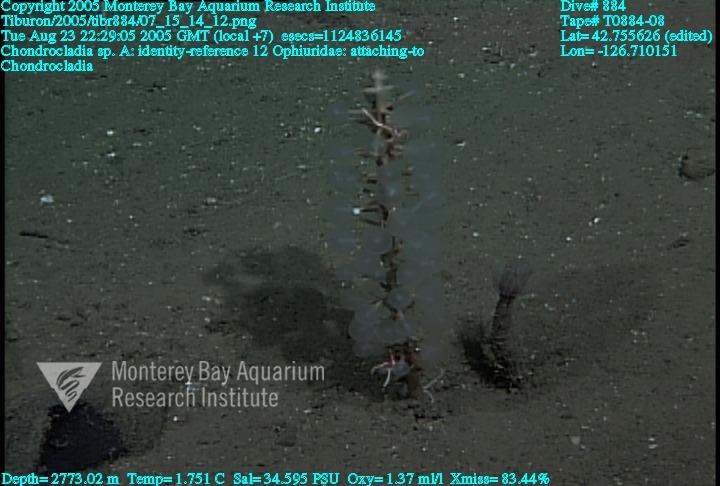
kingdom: Animalia
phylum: Porifera
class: Demospongiae
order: Poecilosclerida
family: Cladorhizidae
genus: Chondrocladia
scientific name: Chondrocladia
